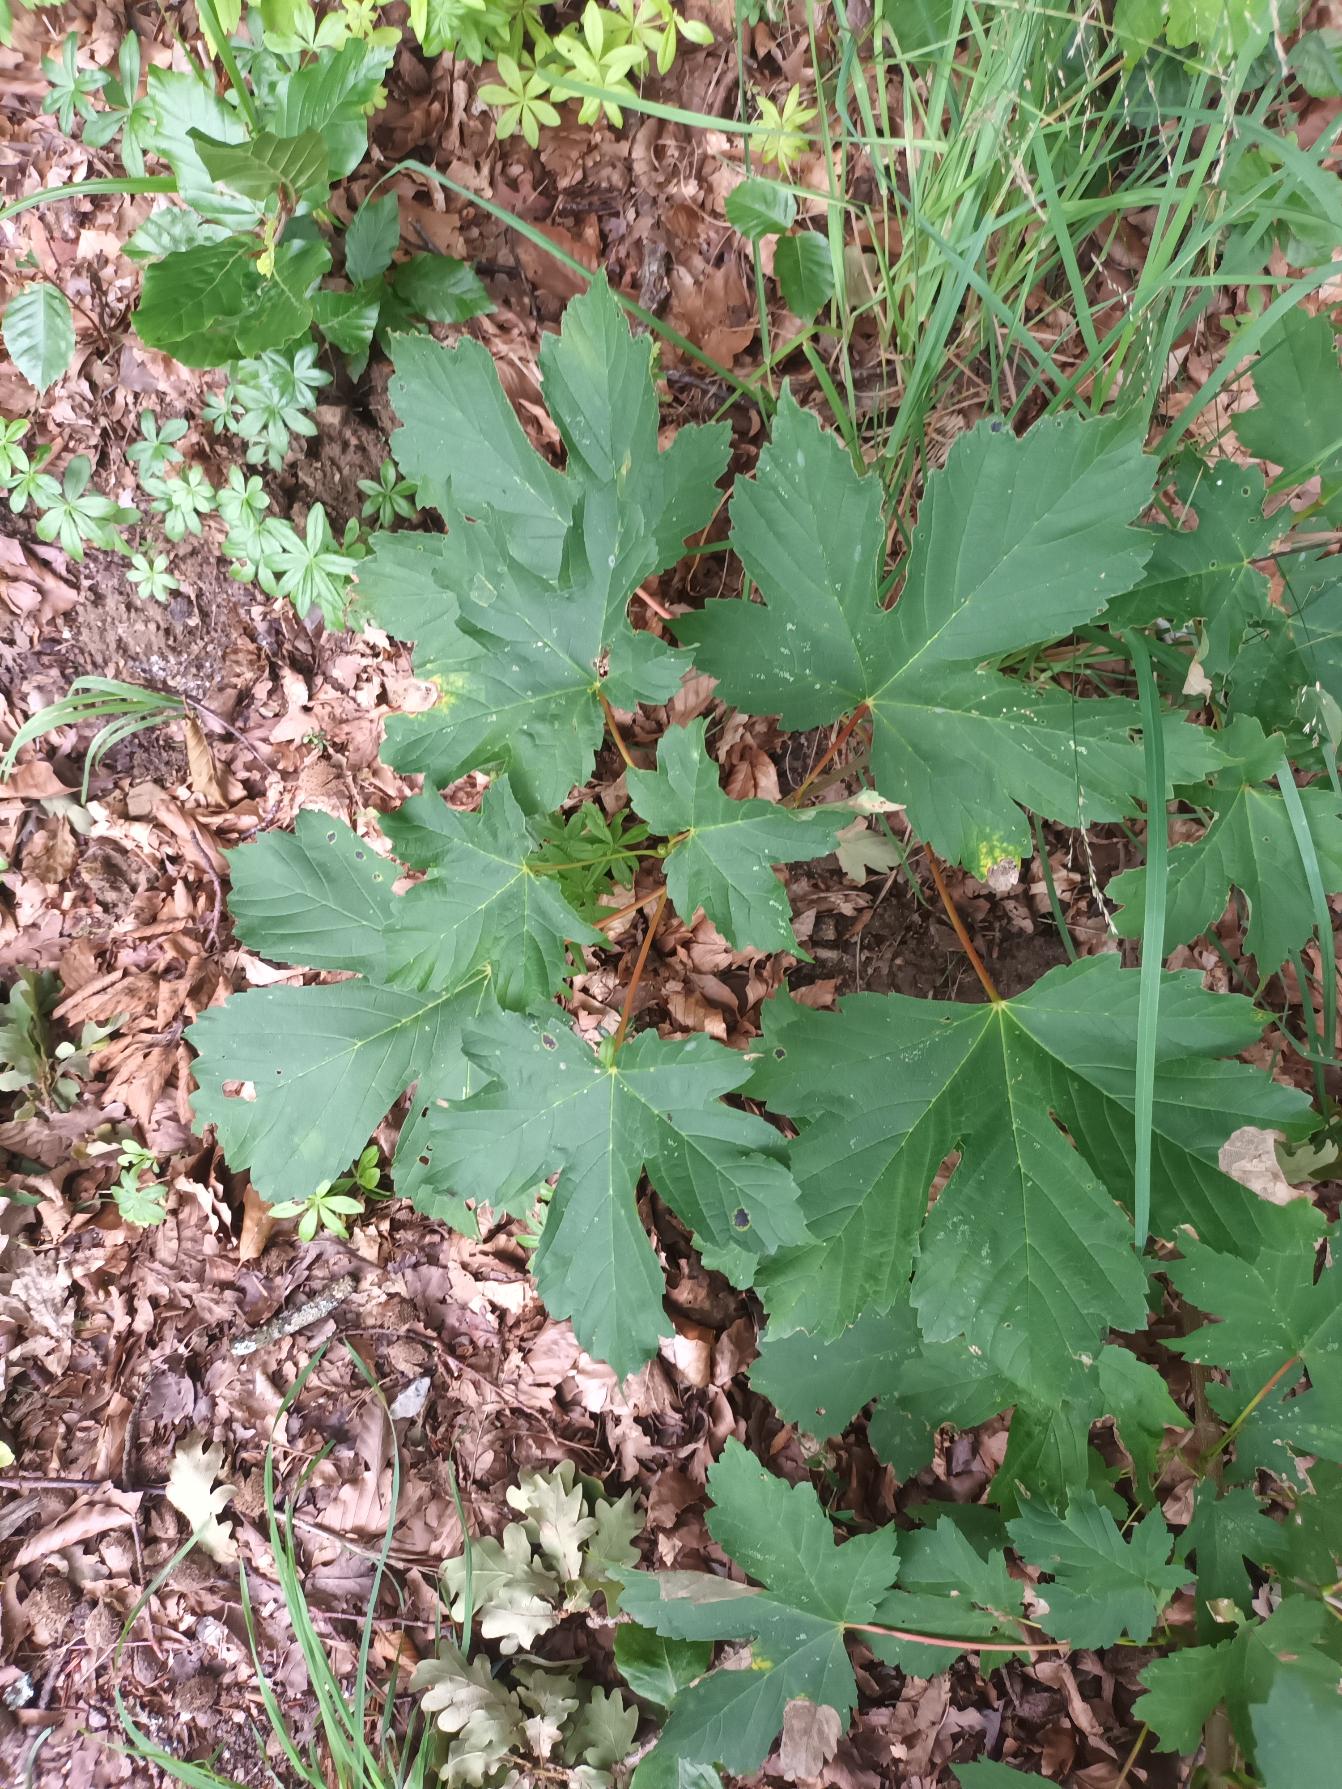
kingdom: Plantae
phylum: Tracheophyta
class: Magnoliopsida
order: Sapindales
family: Sapindaceae
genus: Acer
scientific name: Acer pseudoplatanus
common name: Ahorn
